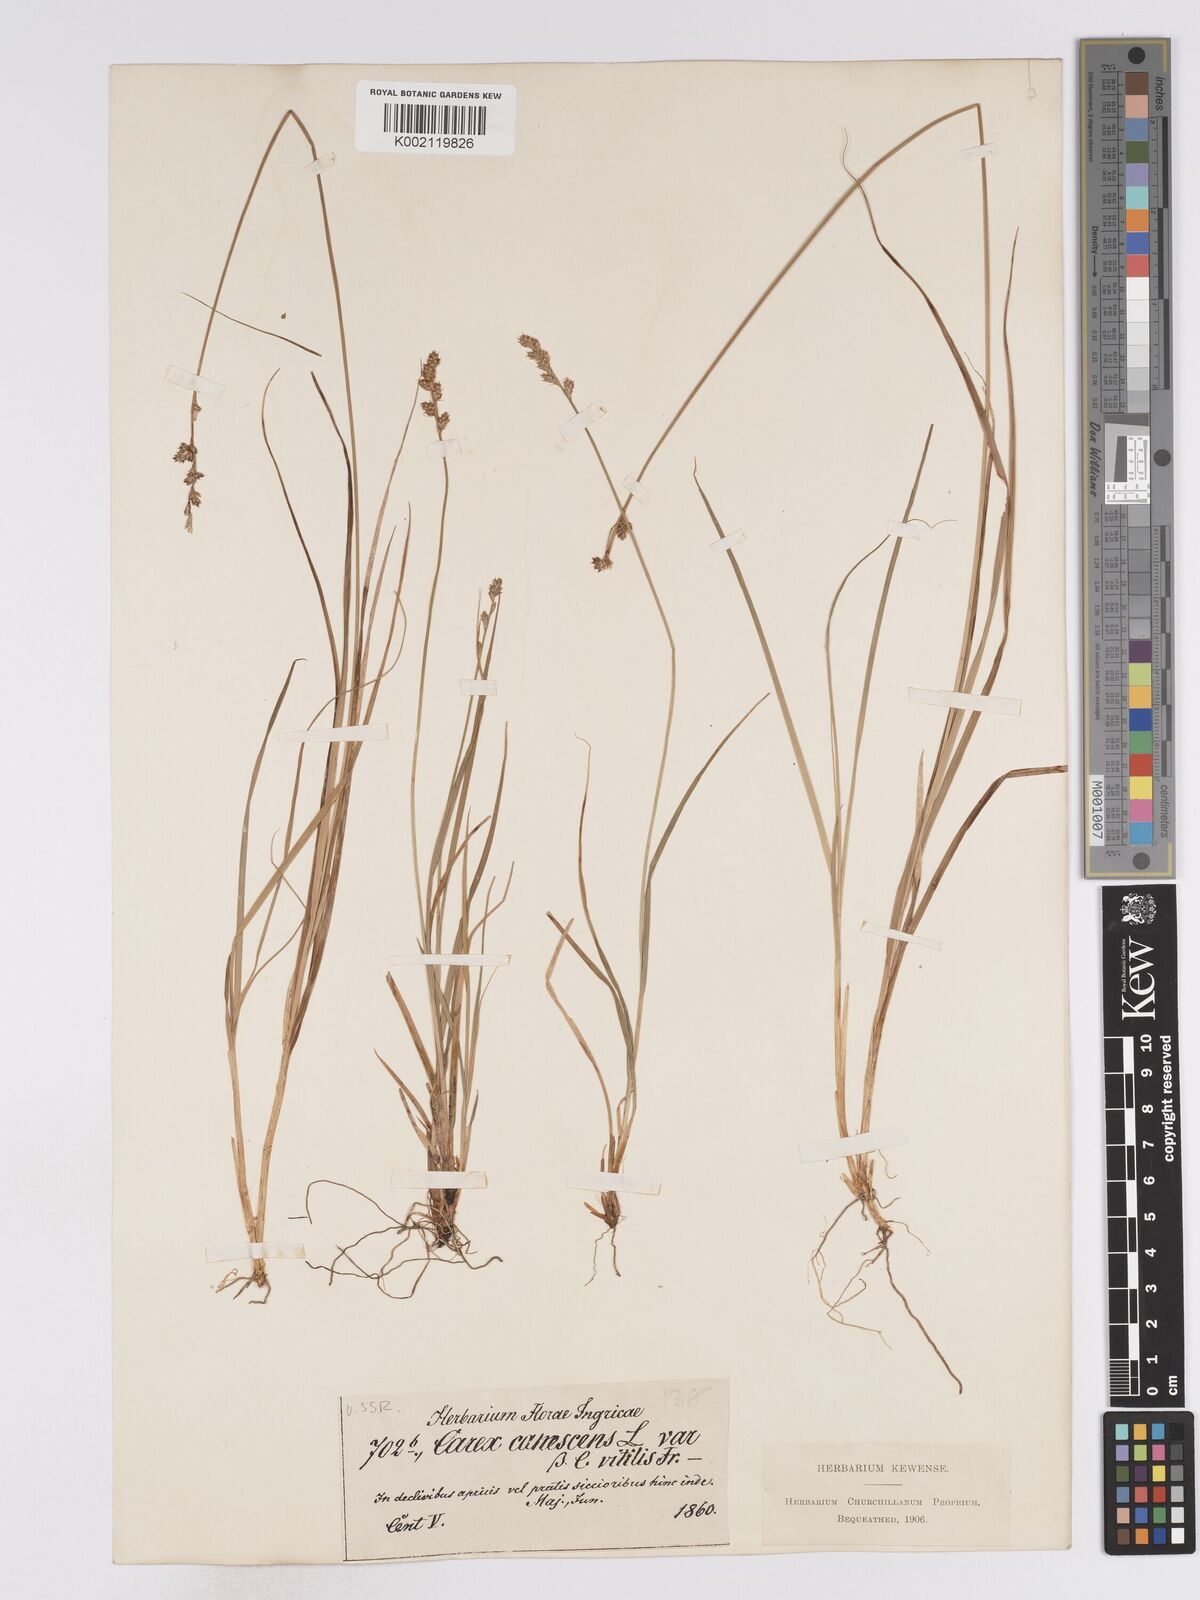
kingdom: Plantae
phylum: Tracheophyta
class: Liliopsida
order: Poales
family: Cyperaceae
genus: Carex
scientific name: Carex curta
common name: White sedge
